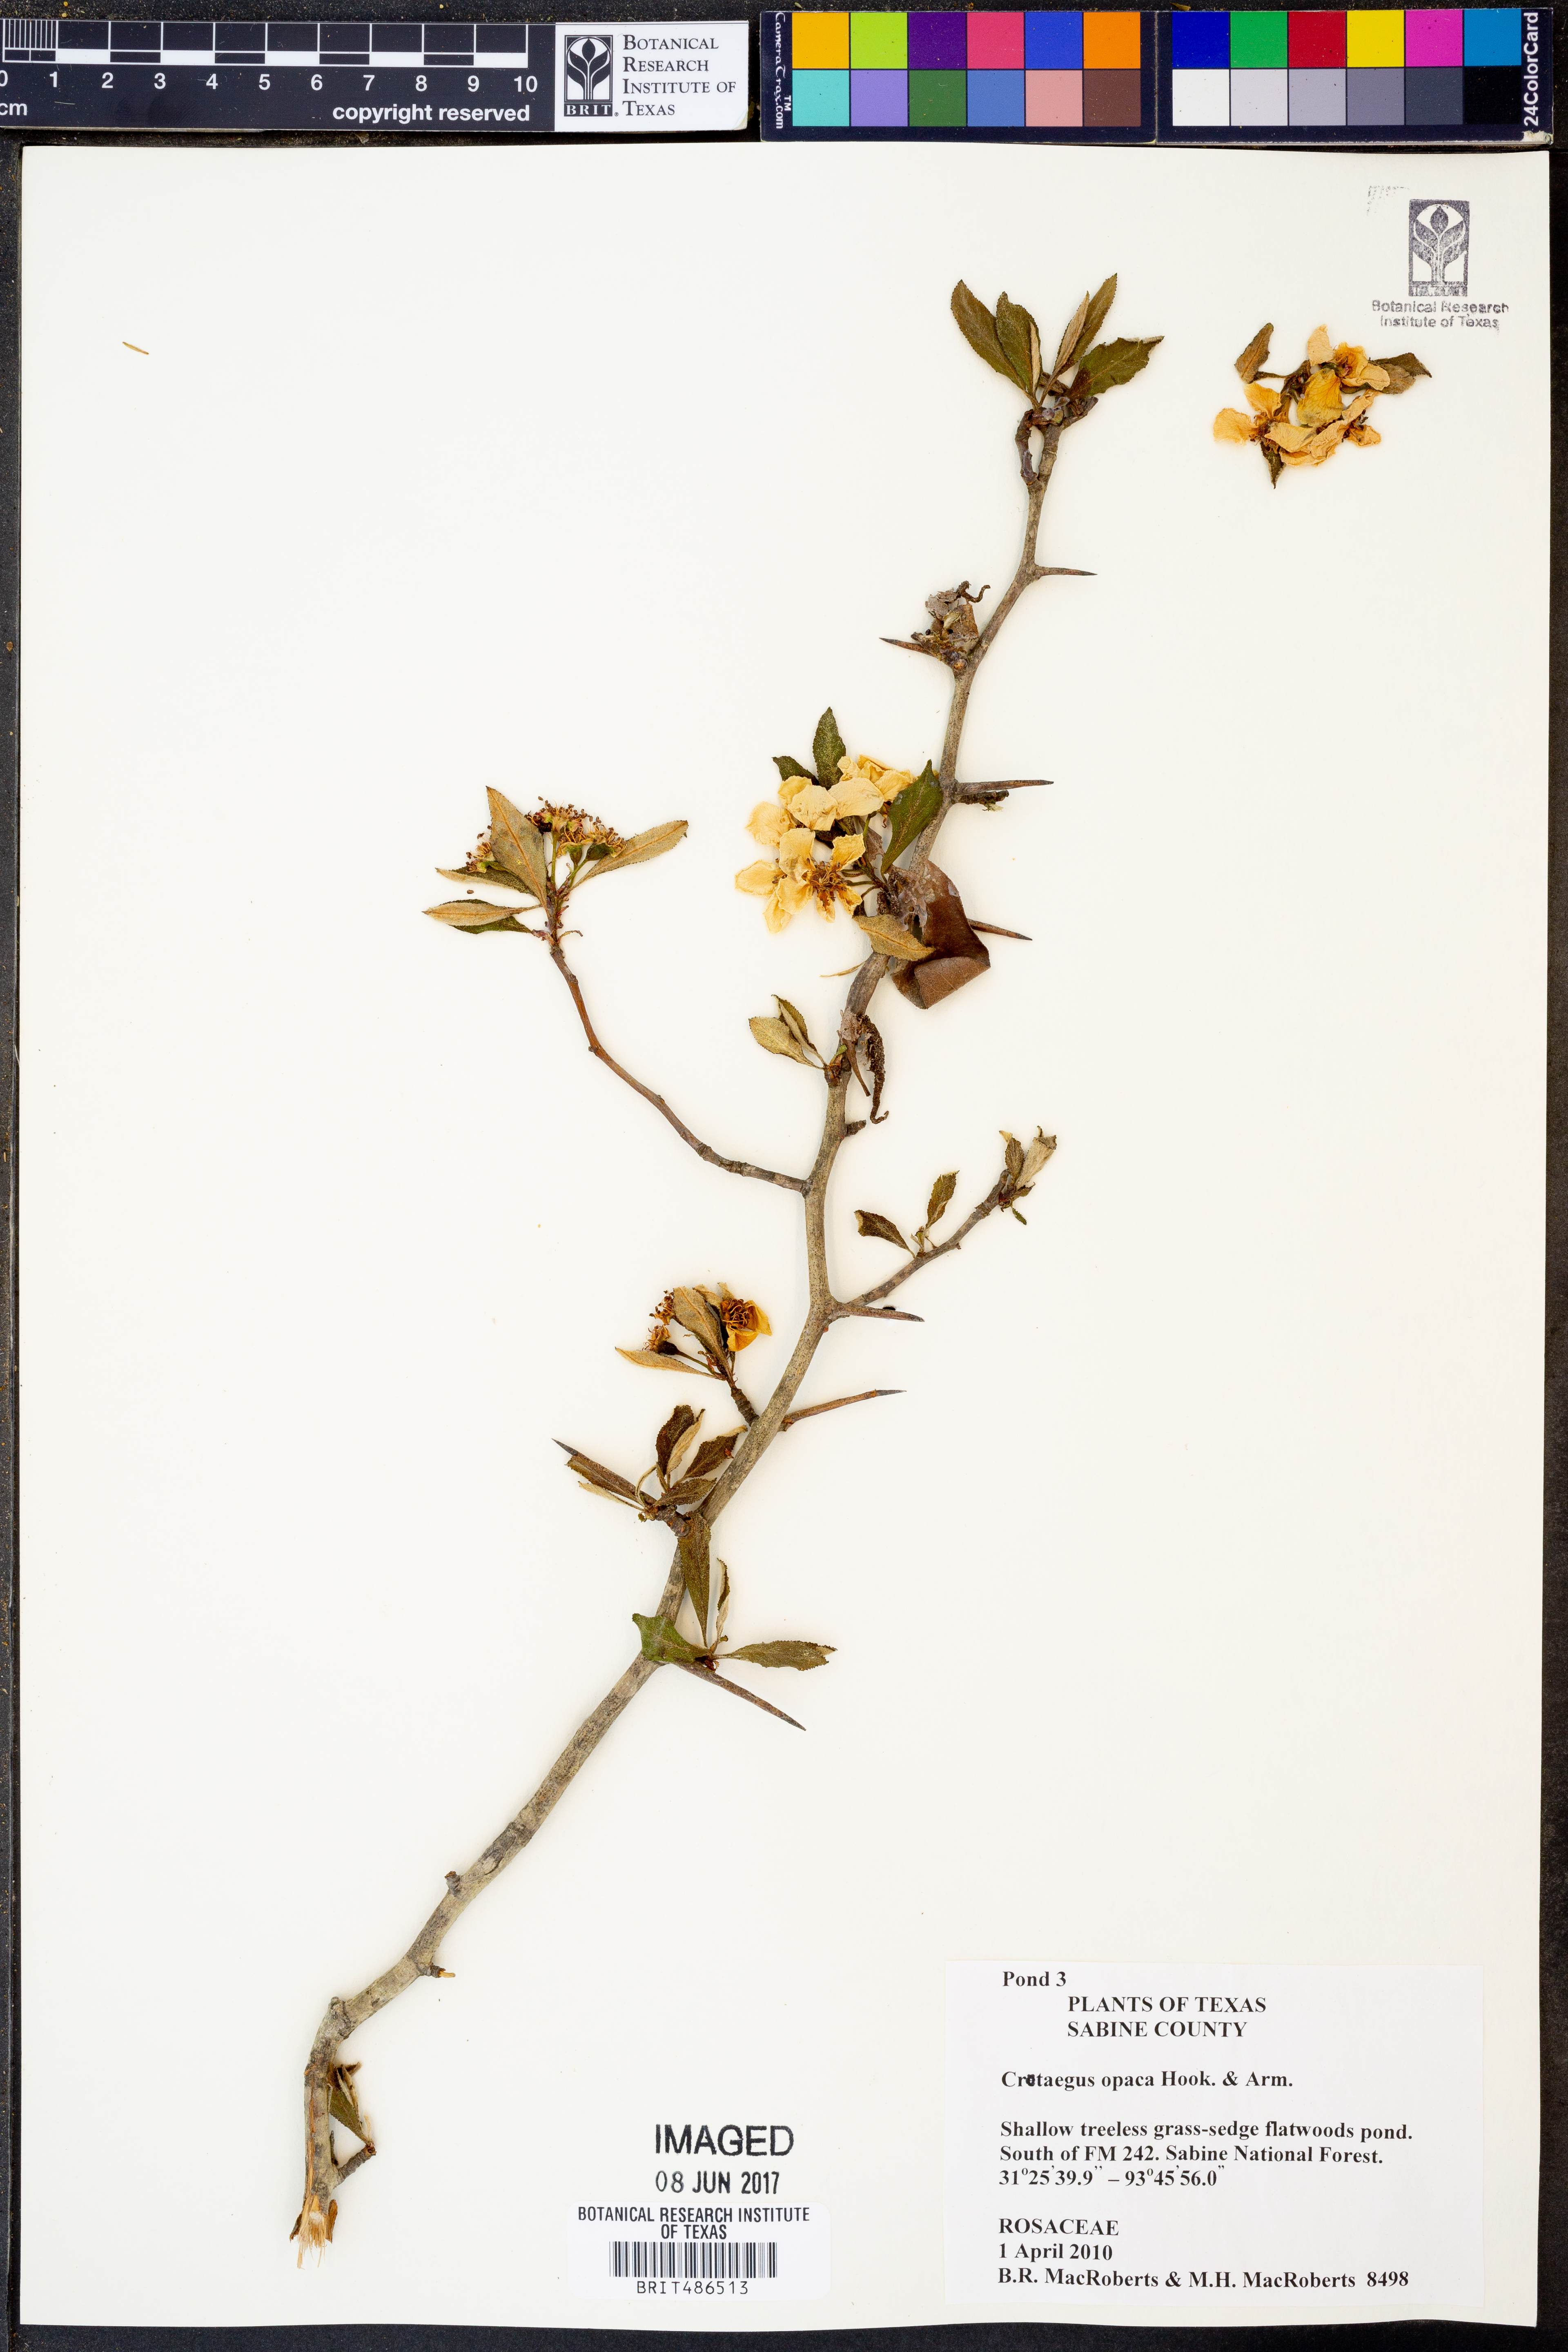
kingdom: Plantae
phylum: Tracheophyta
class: Magnoliopsida
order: Rosales
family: Rosaceae
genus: Crataegus
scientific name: Crataegus opaca
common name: Apple haw
